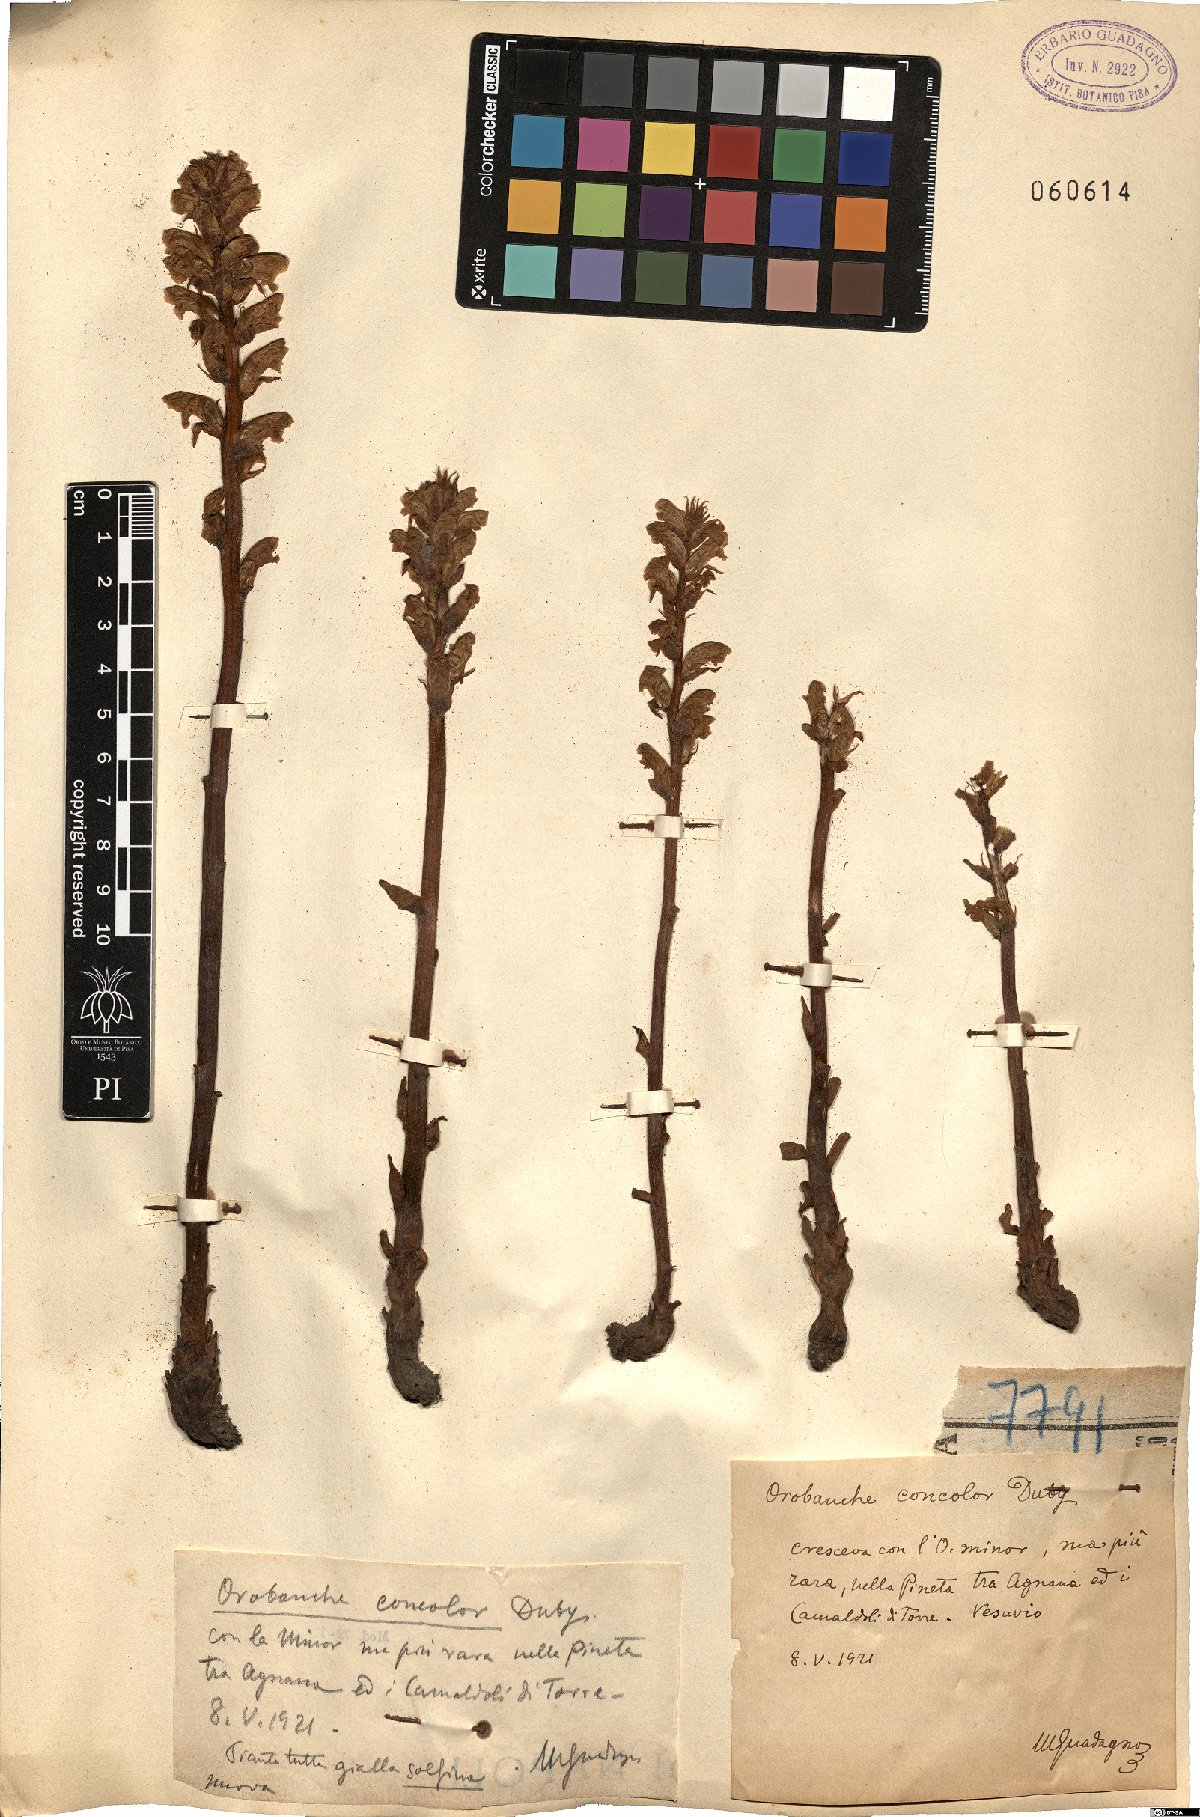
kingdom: Plantae
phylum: Tracheophyta
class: Magnoliopsida
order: Lamiales
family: Orobanchaceae
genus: Orobanche
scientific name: Orobanche minor
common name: Common broomrape
